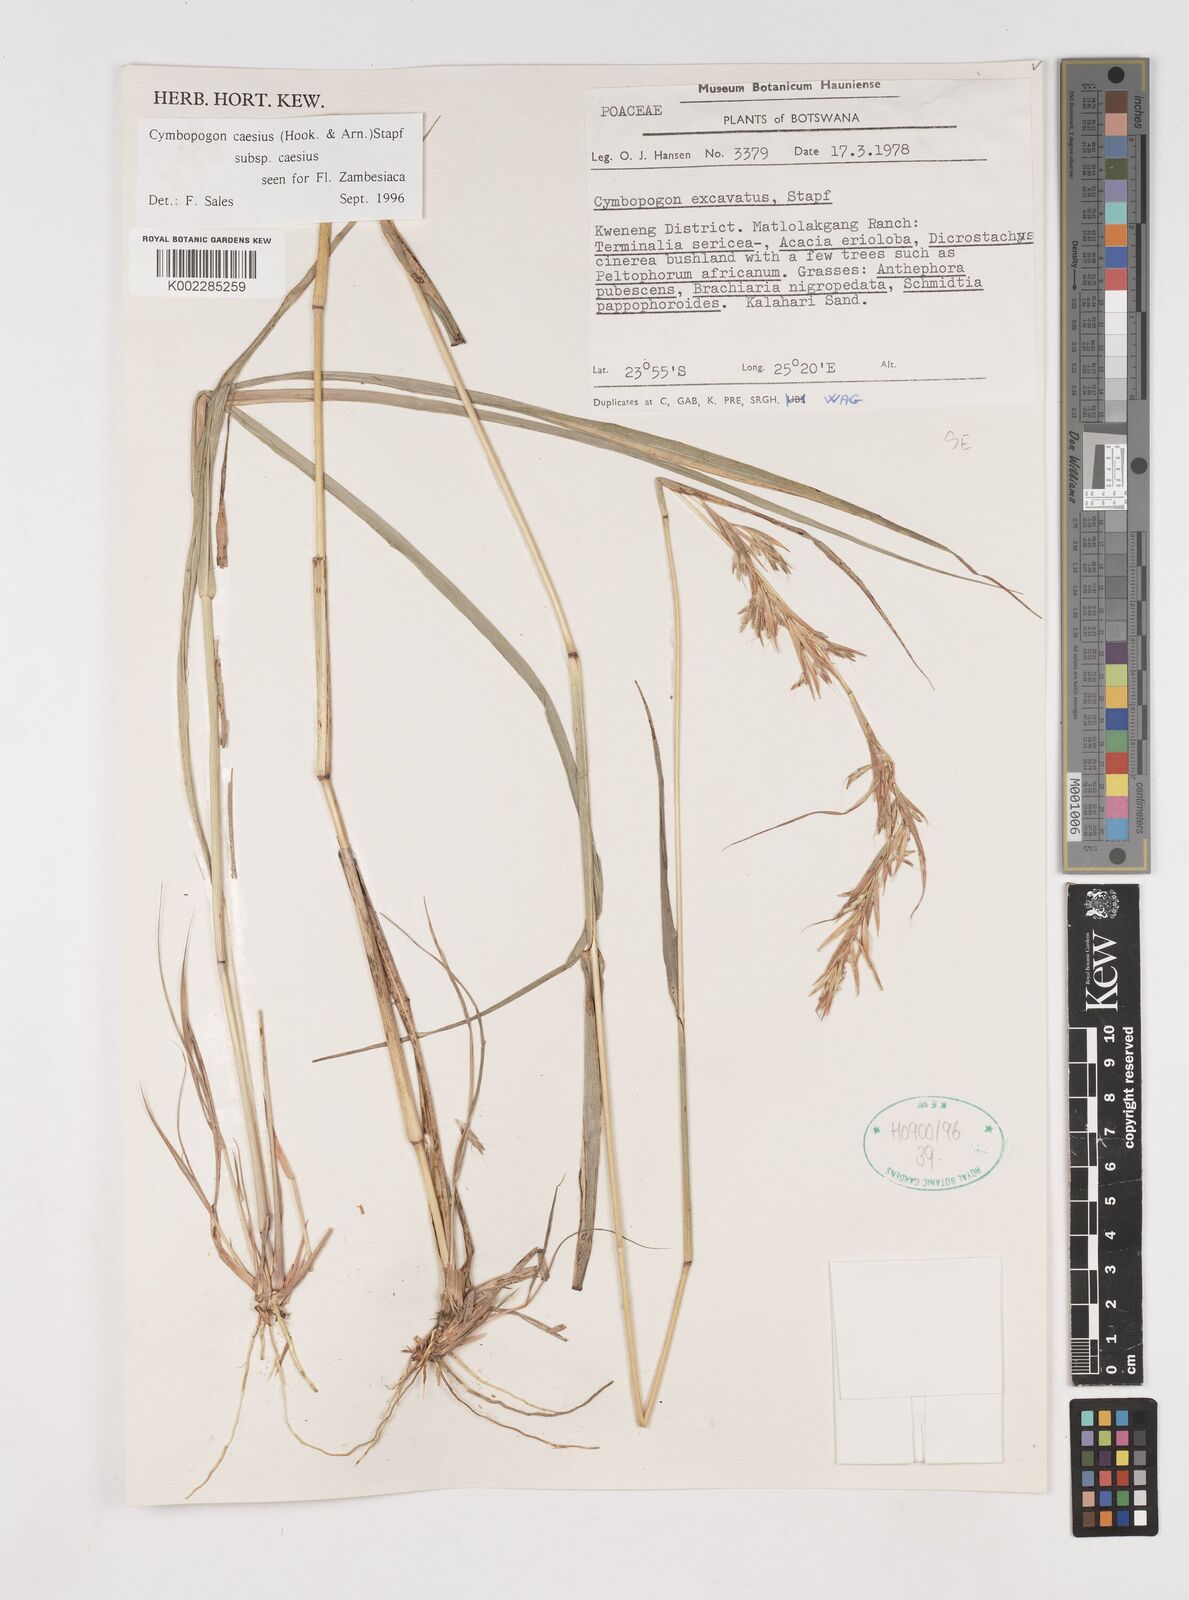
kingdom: Plantae
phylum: Tracheophyta
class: Liliopsida
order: Poales
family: Poaceae
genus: Cymbopogon
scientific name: Cymbopogon caesius
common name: Kachi grass
